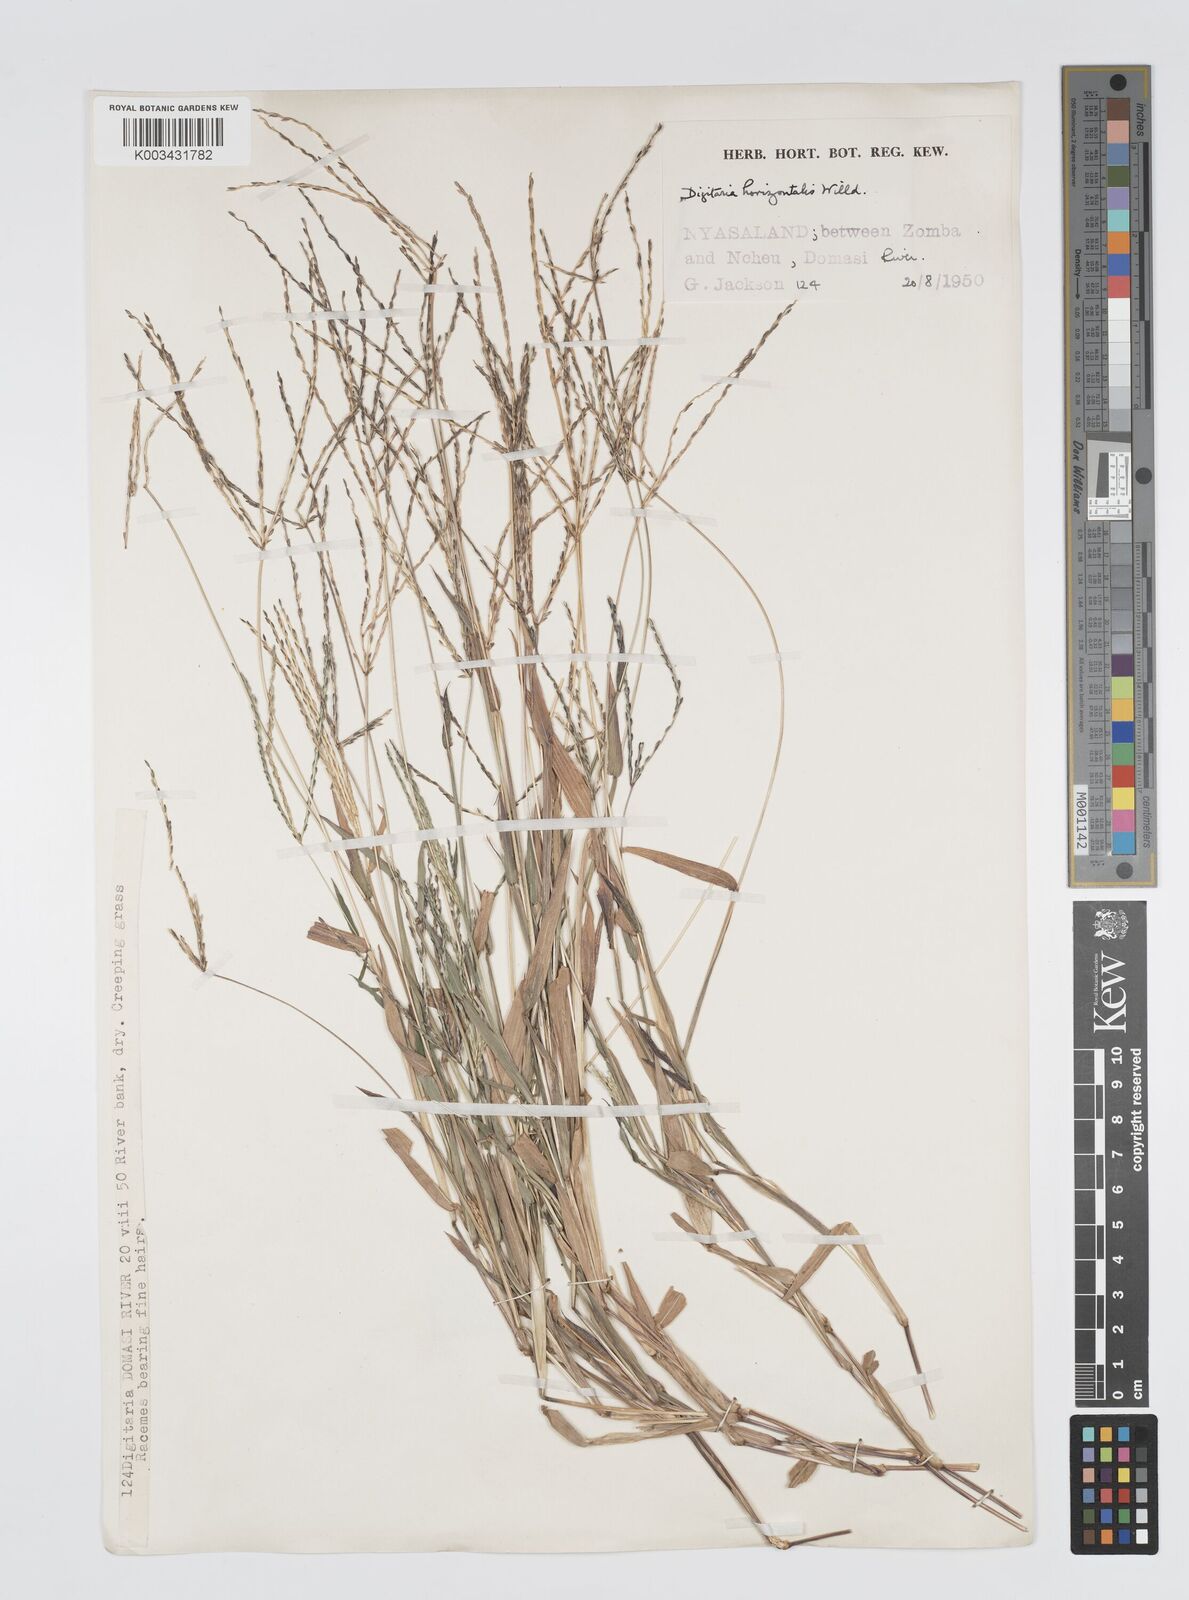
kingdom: Plantae
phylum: Tracheophyta
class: Liliopsida
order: Poales
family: Poaceae
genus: Digitaria
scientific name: Digitaria nuda
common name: Naked crabgrass
